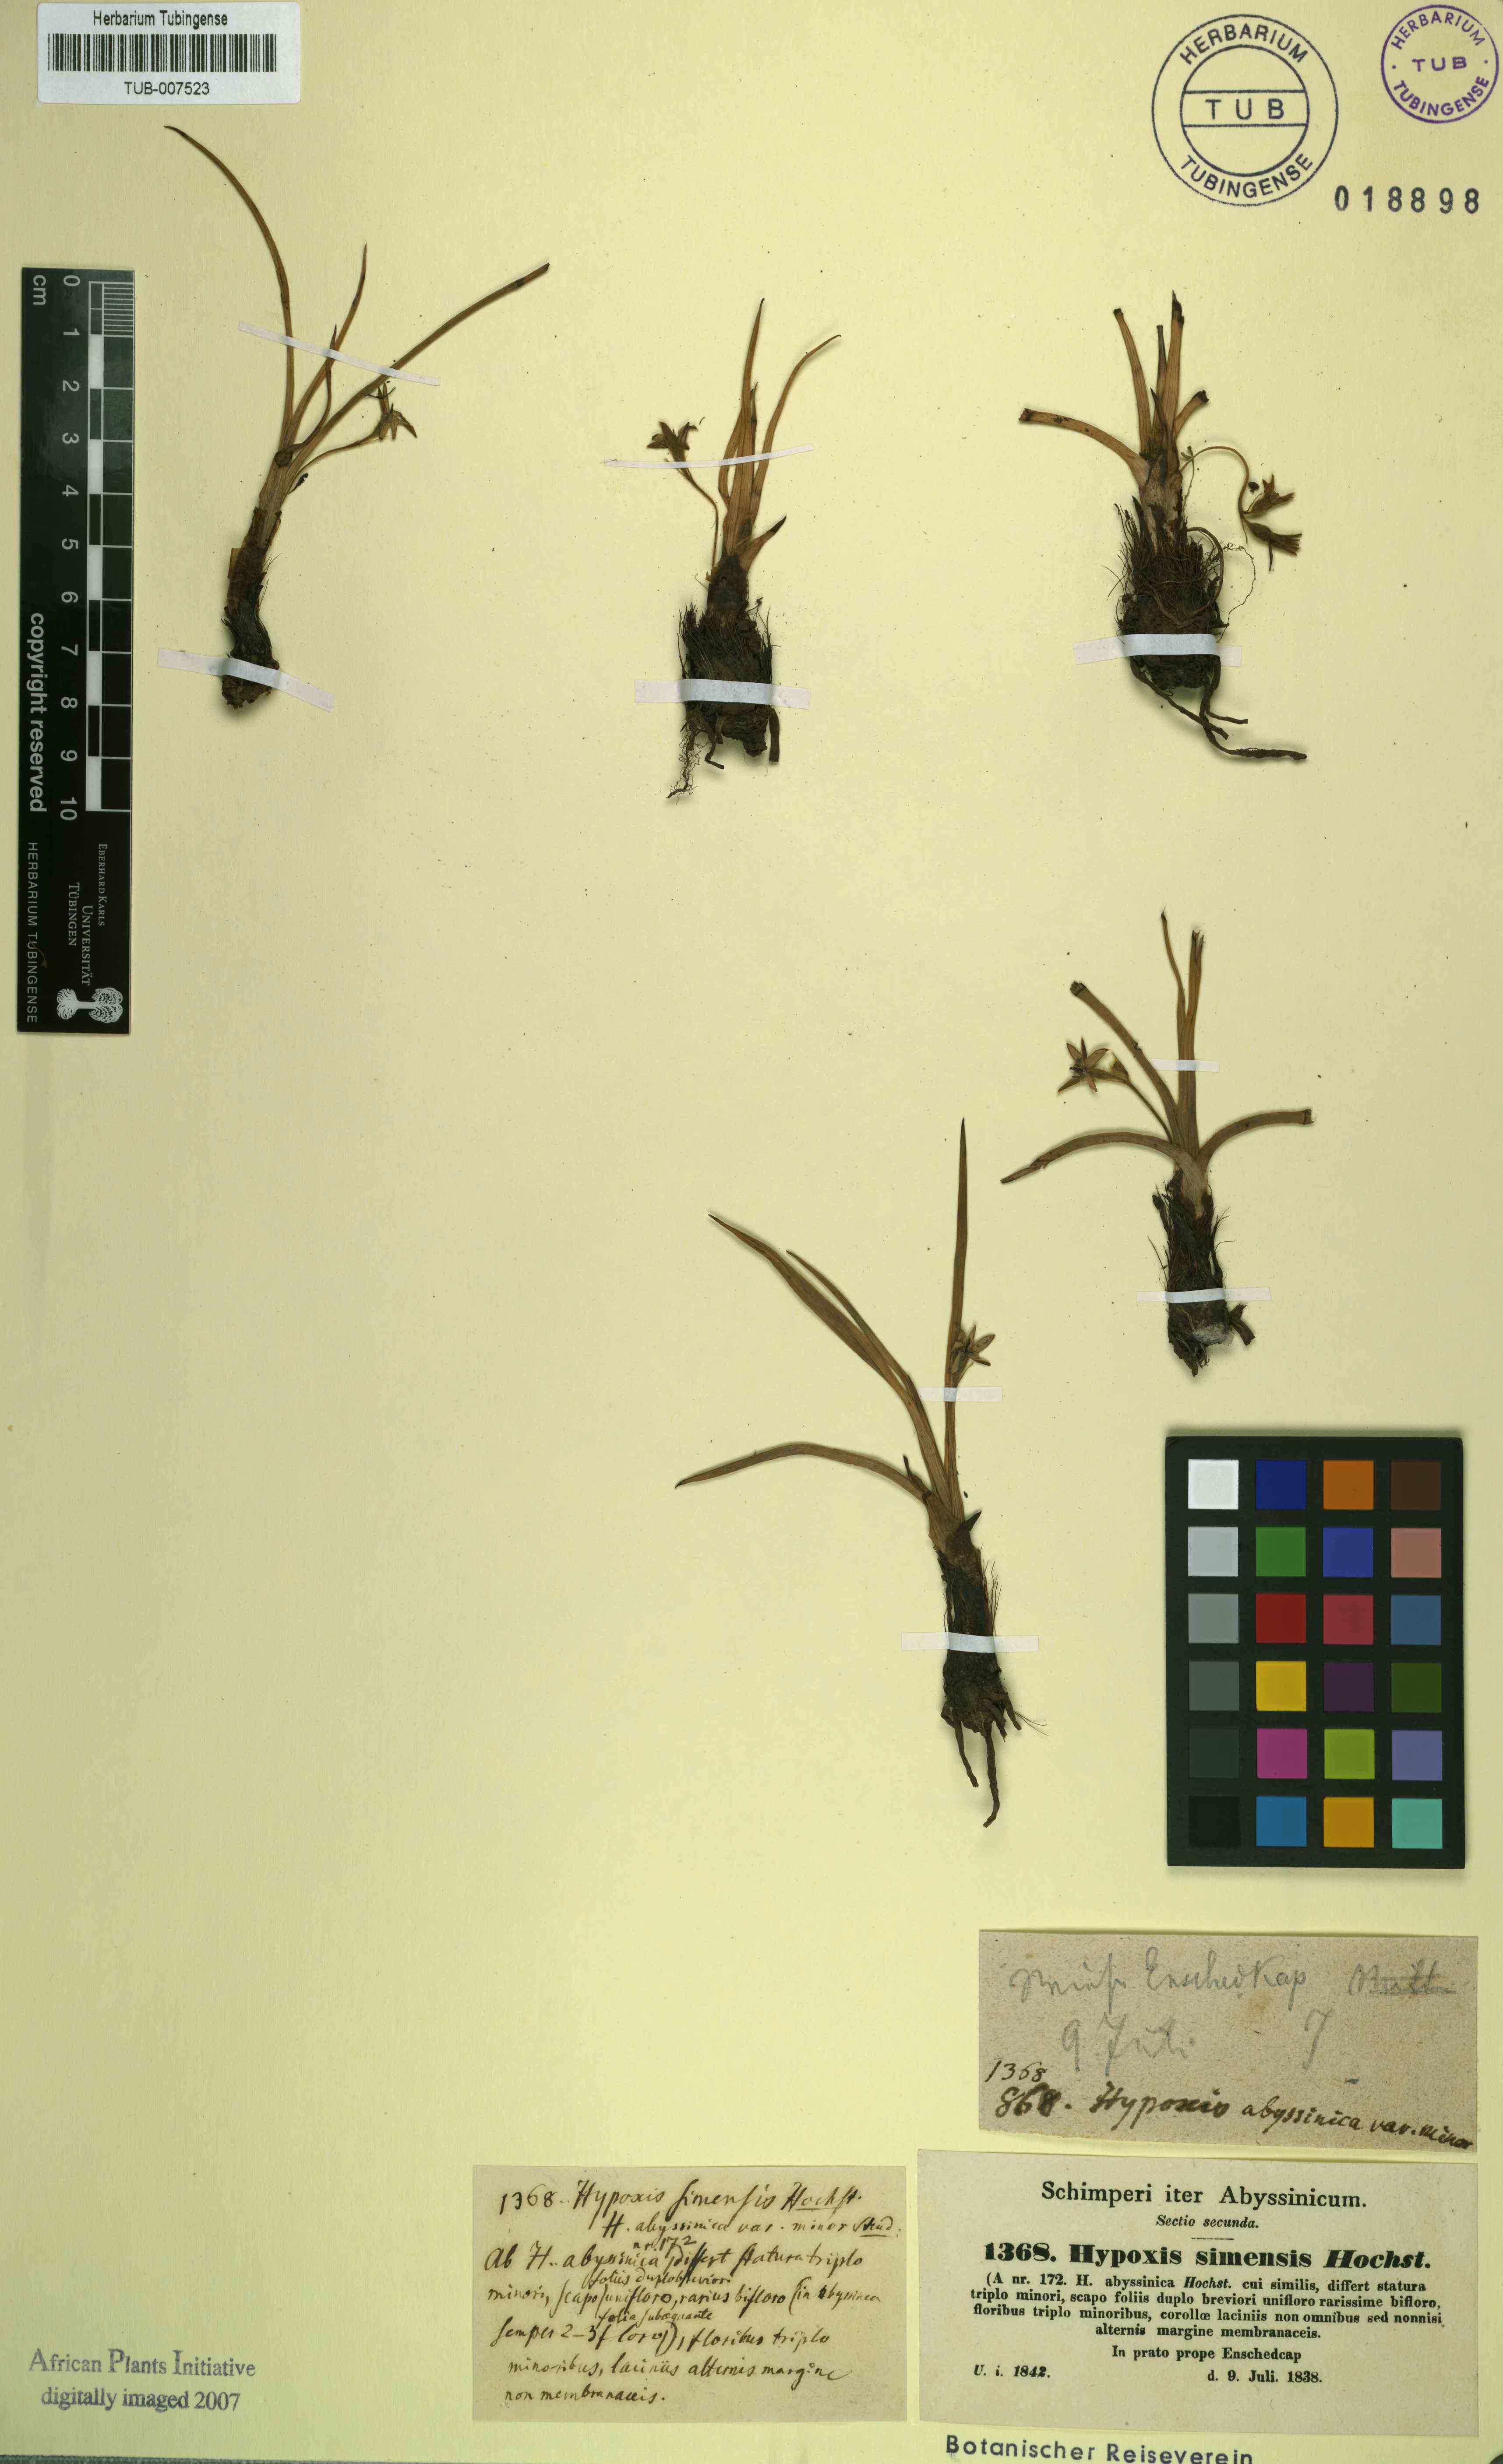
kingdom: Plantae
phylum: Tracheophyta
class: Liliopsida
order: Asparagales
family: Hypoxidaceae
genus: Hypoxis
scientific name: Hypoxis villosa
